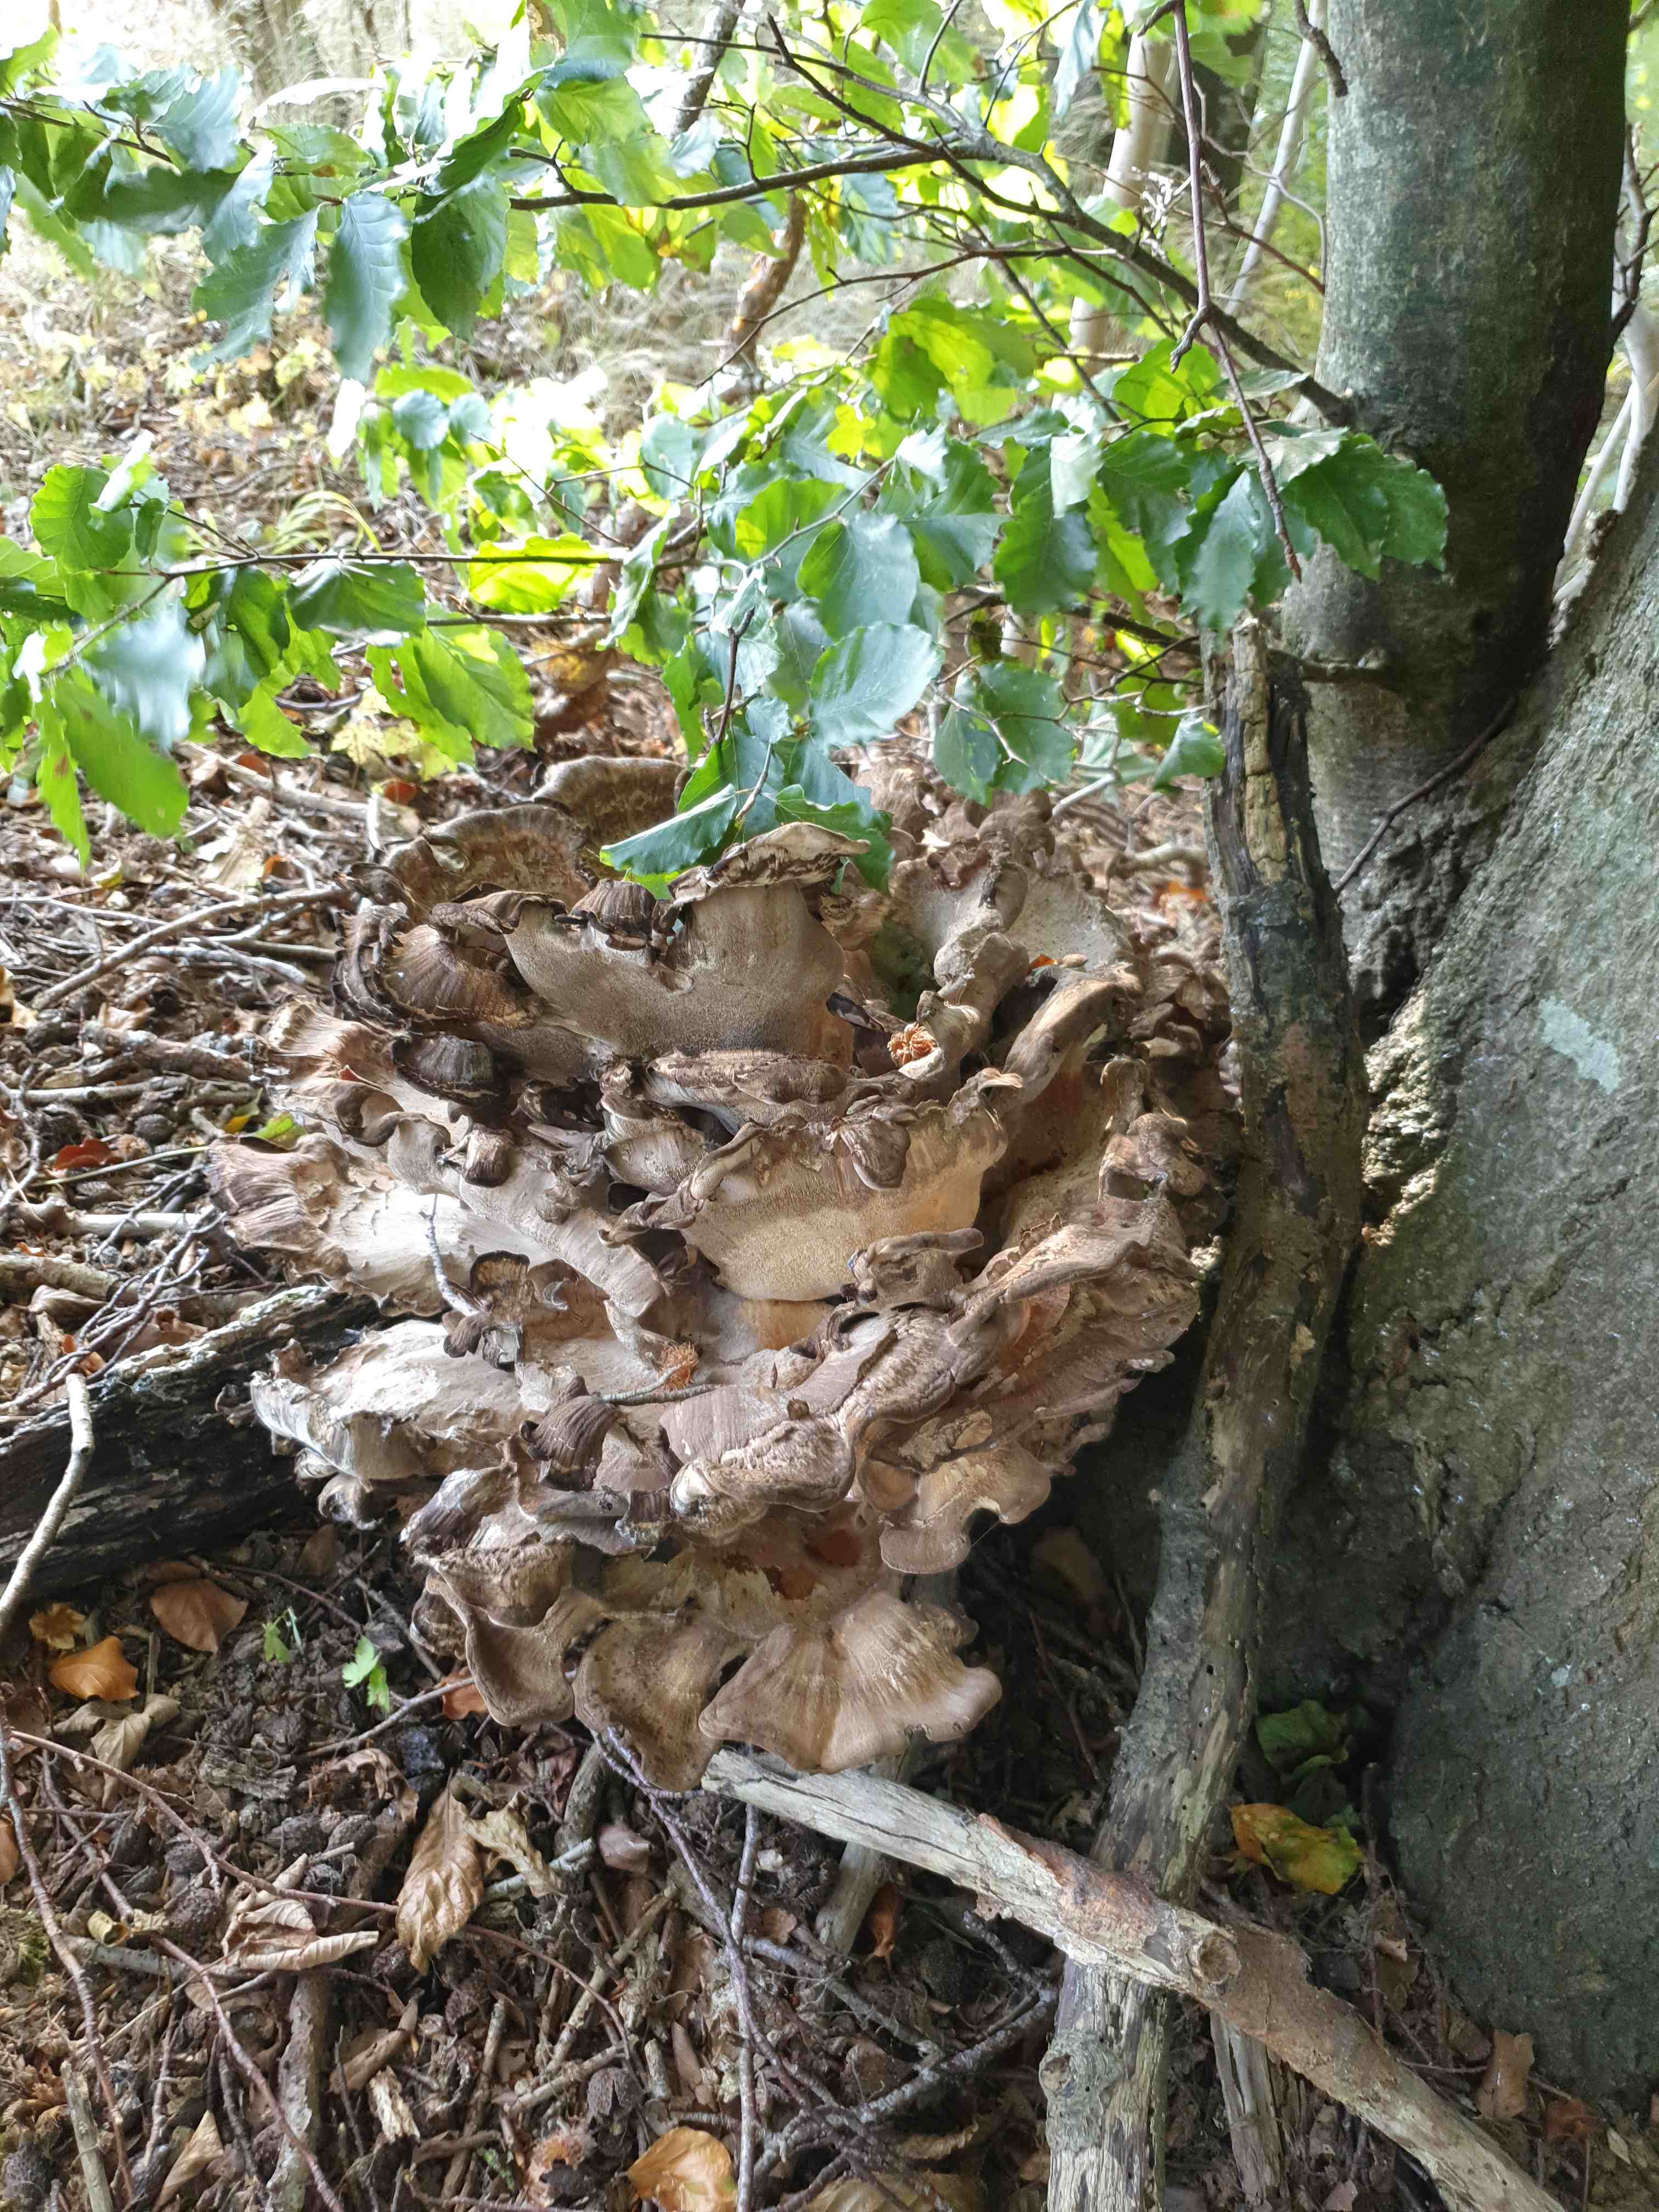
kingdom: Fungi
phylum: Basidiomycota
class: Agaricomycetes
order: Polyporales
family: Meripilaceae
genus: Meripilus
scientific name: Meripilus giganteus
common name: kæmpeporesvamp
